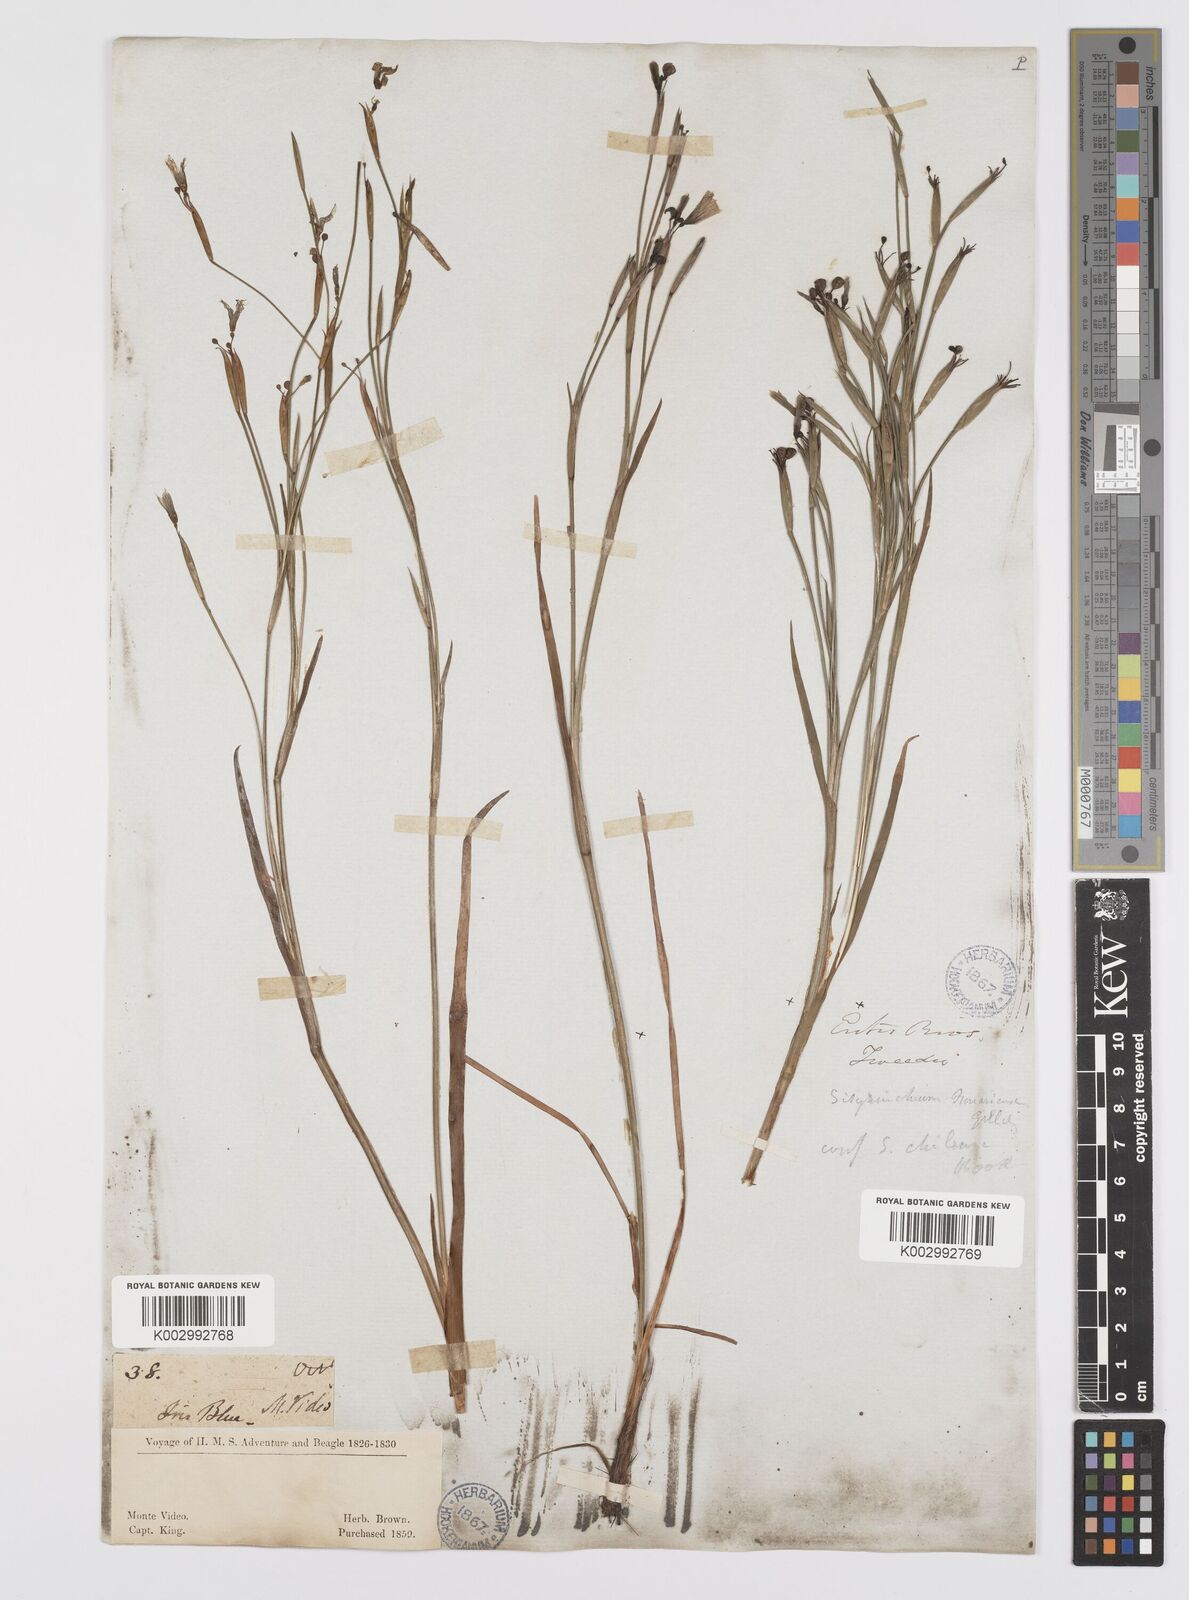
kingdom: Plantae
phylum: Tracheophyta
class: Liliopsida
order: Asparagales
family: Iridaceae
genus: Sisyrinchium
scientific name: Sisyrinchium chilense
